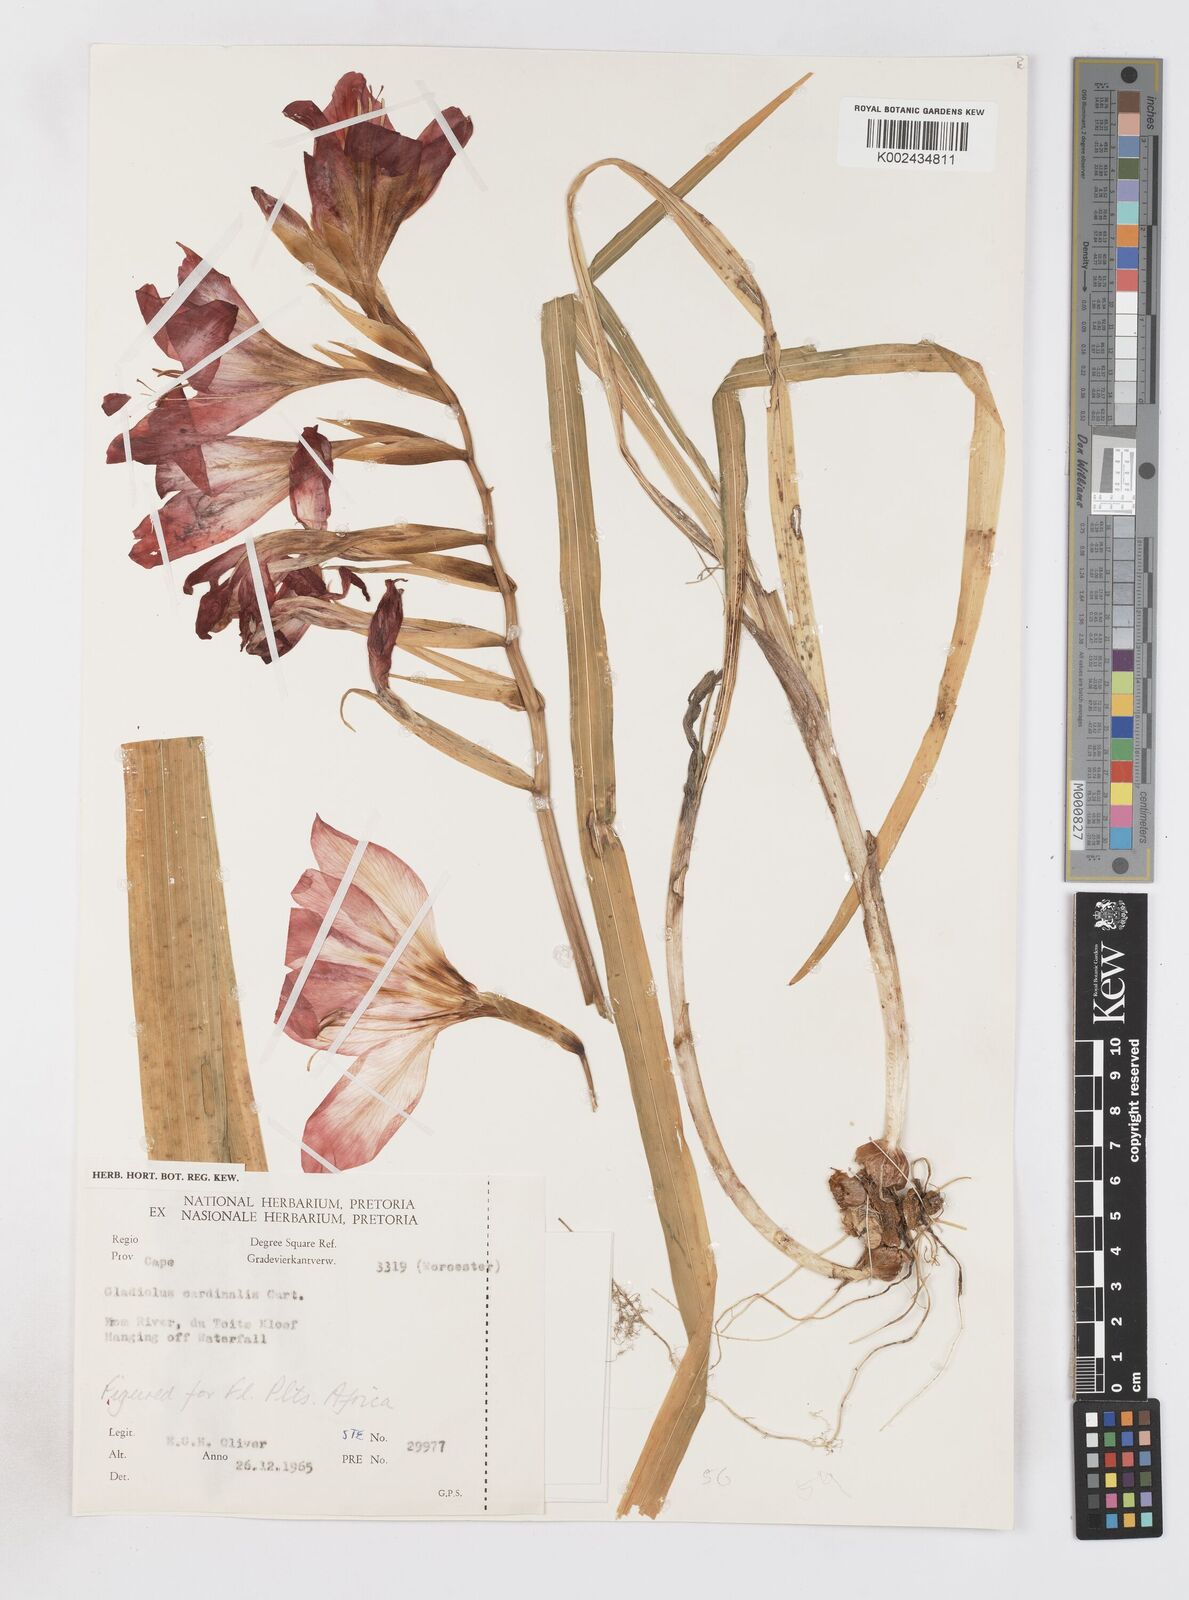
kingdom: Plantae
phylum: Tracheophyta
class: Liliopsida
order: Asparagales
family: Iridaceae
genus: Gladiolus
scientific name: Gladiolus cardinalis
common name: New year-lily
